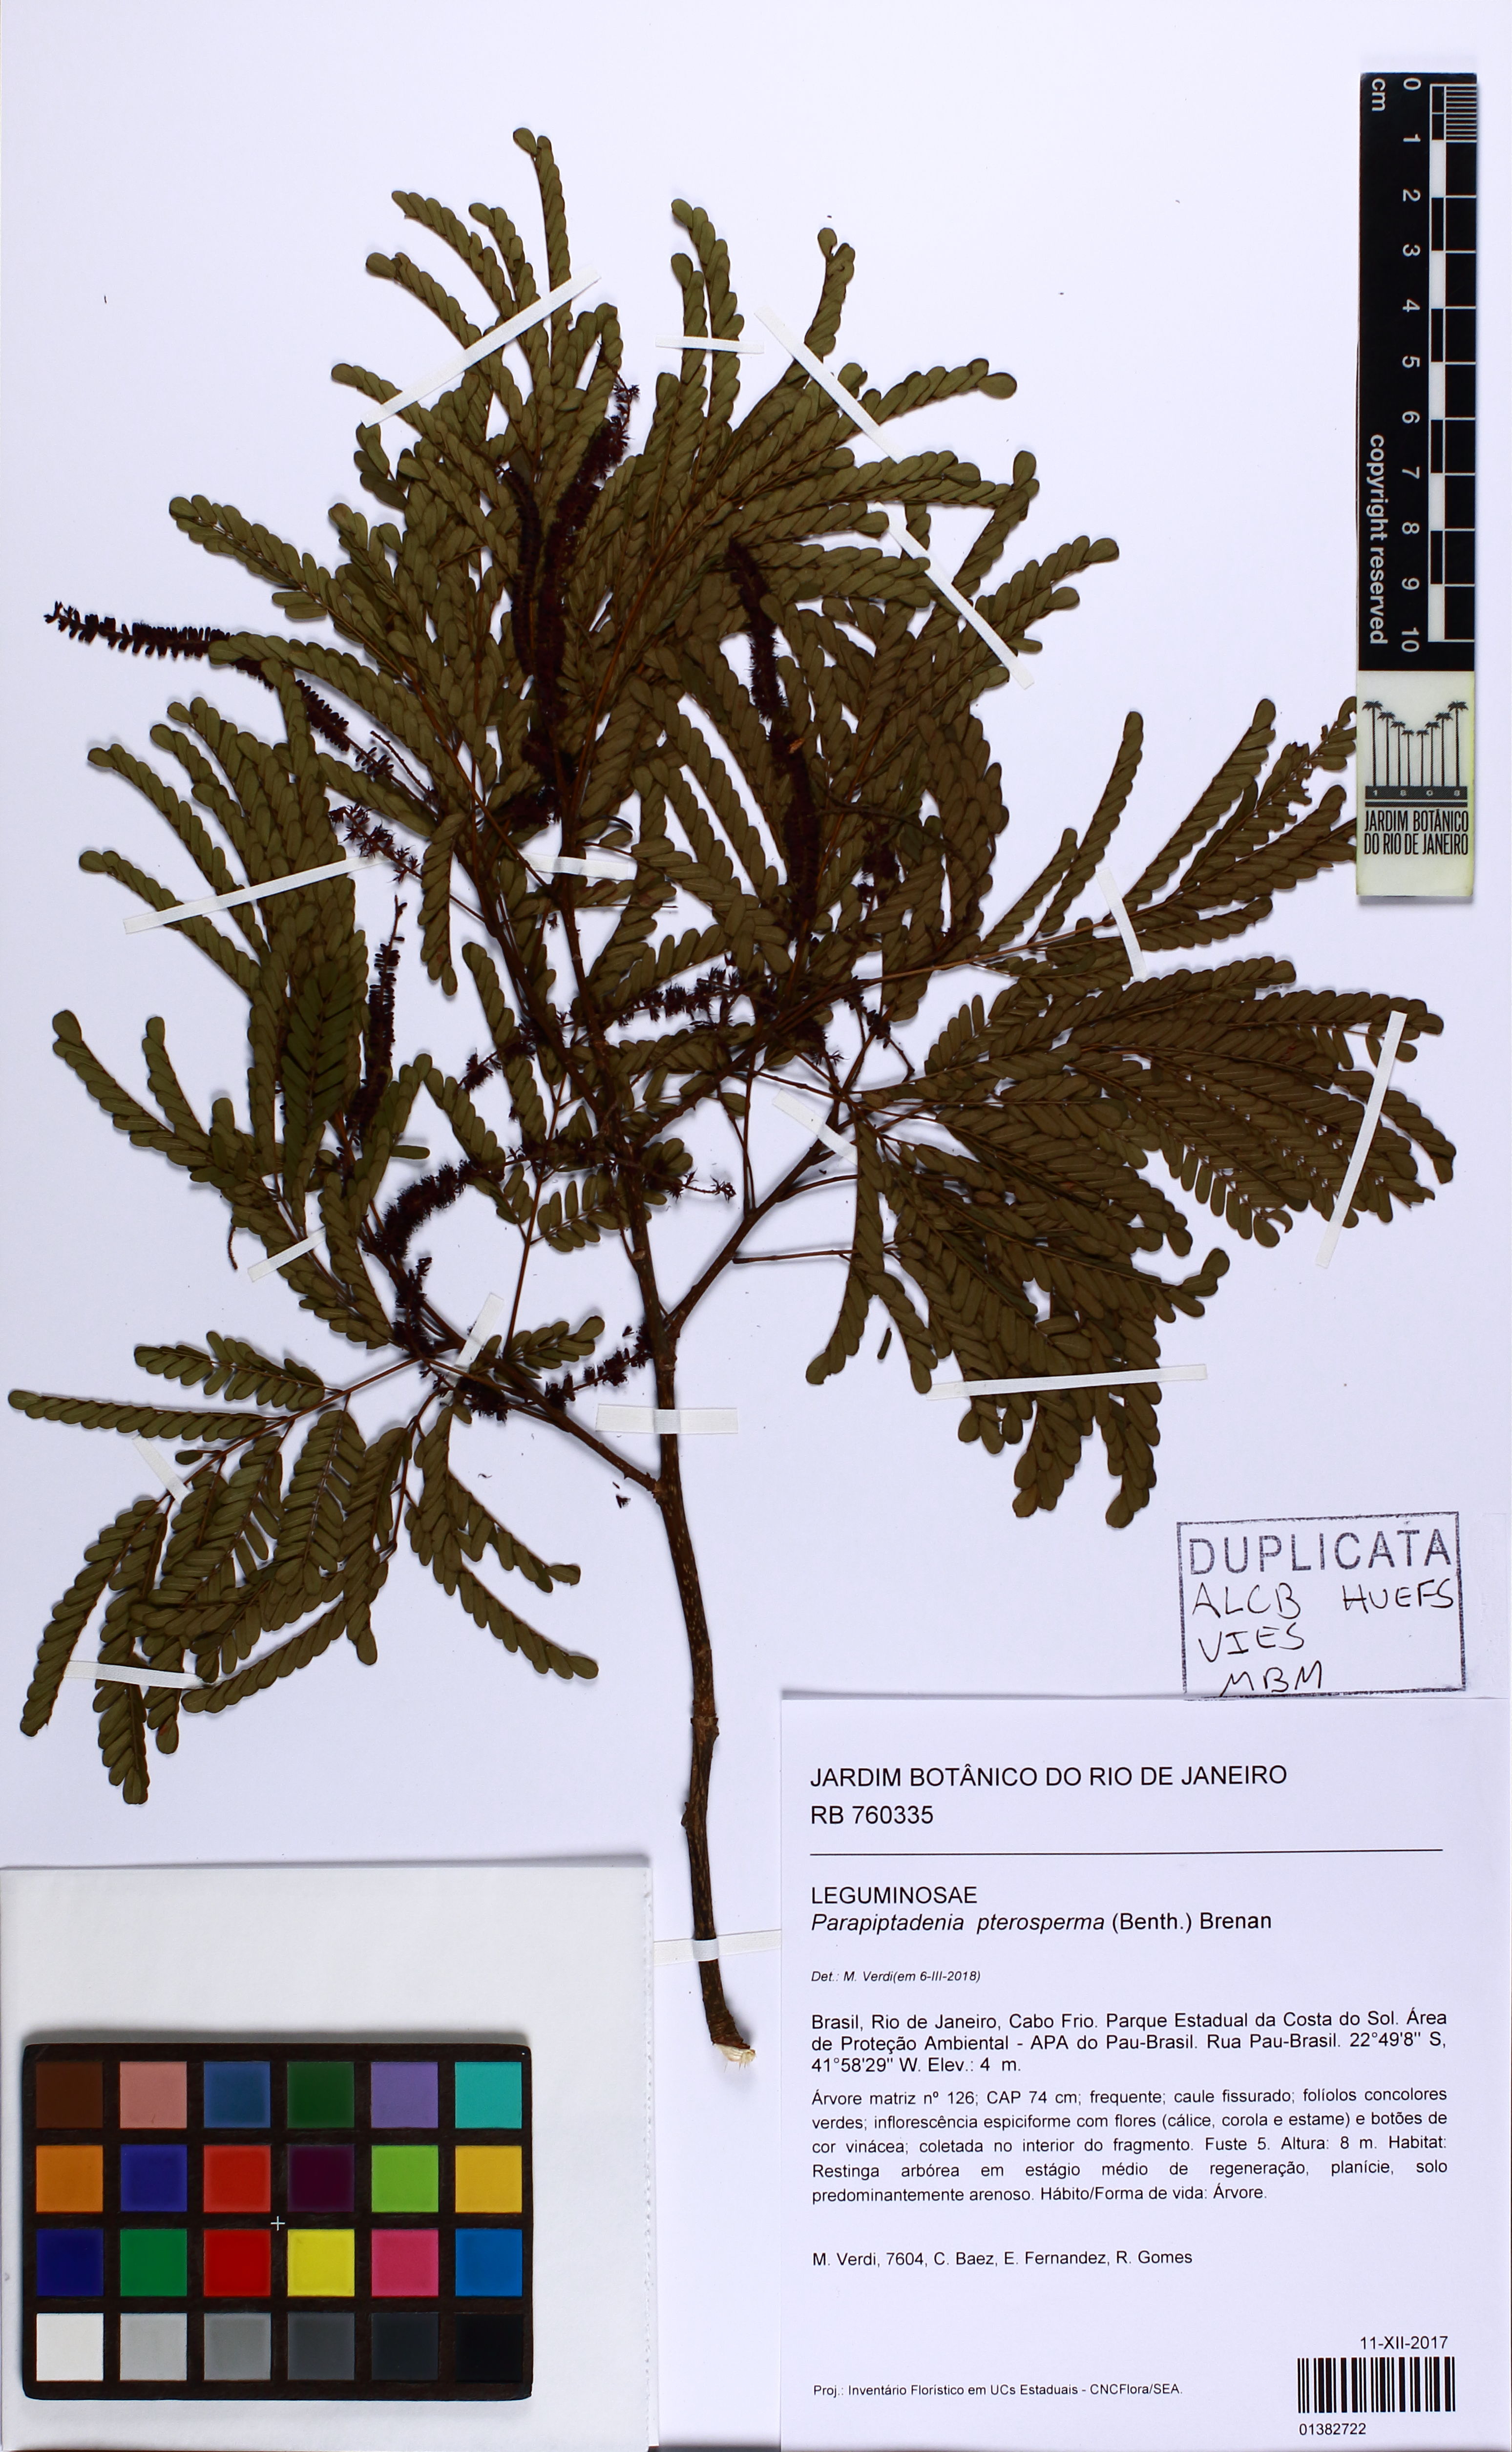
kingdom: Plantae
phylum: Tracheophyta
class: Magnoliopsida
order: Fabales
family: Fabaceae
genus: Parapiptadenia
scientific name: Parapiptadenia pterosperma
